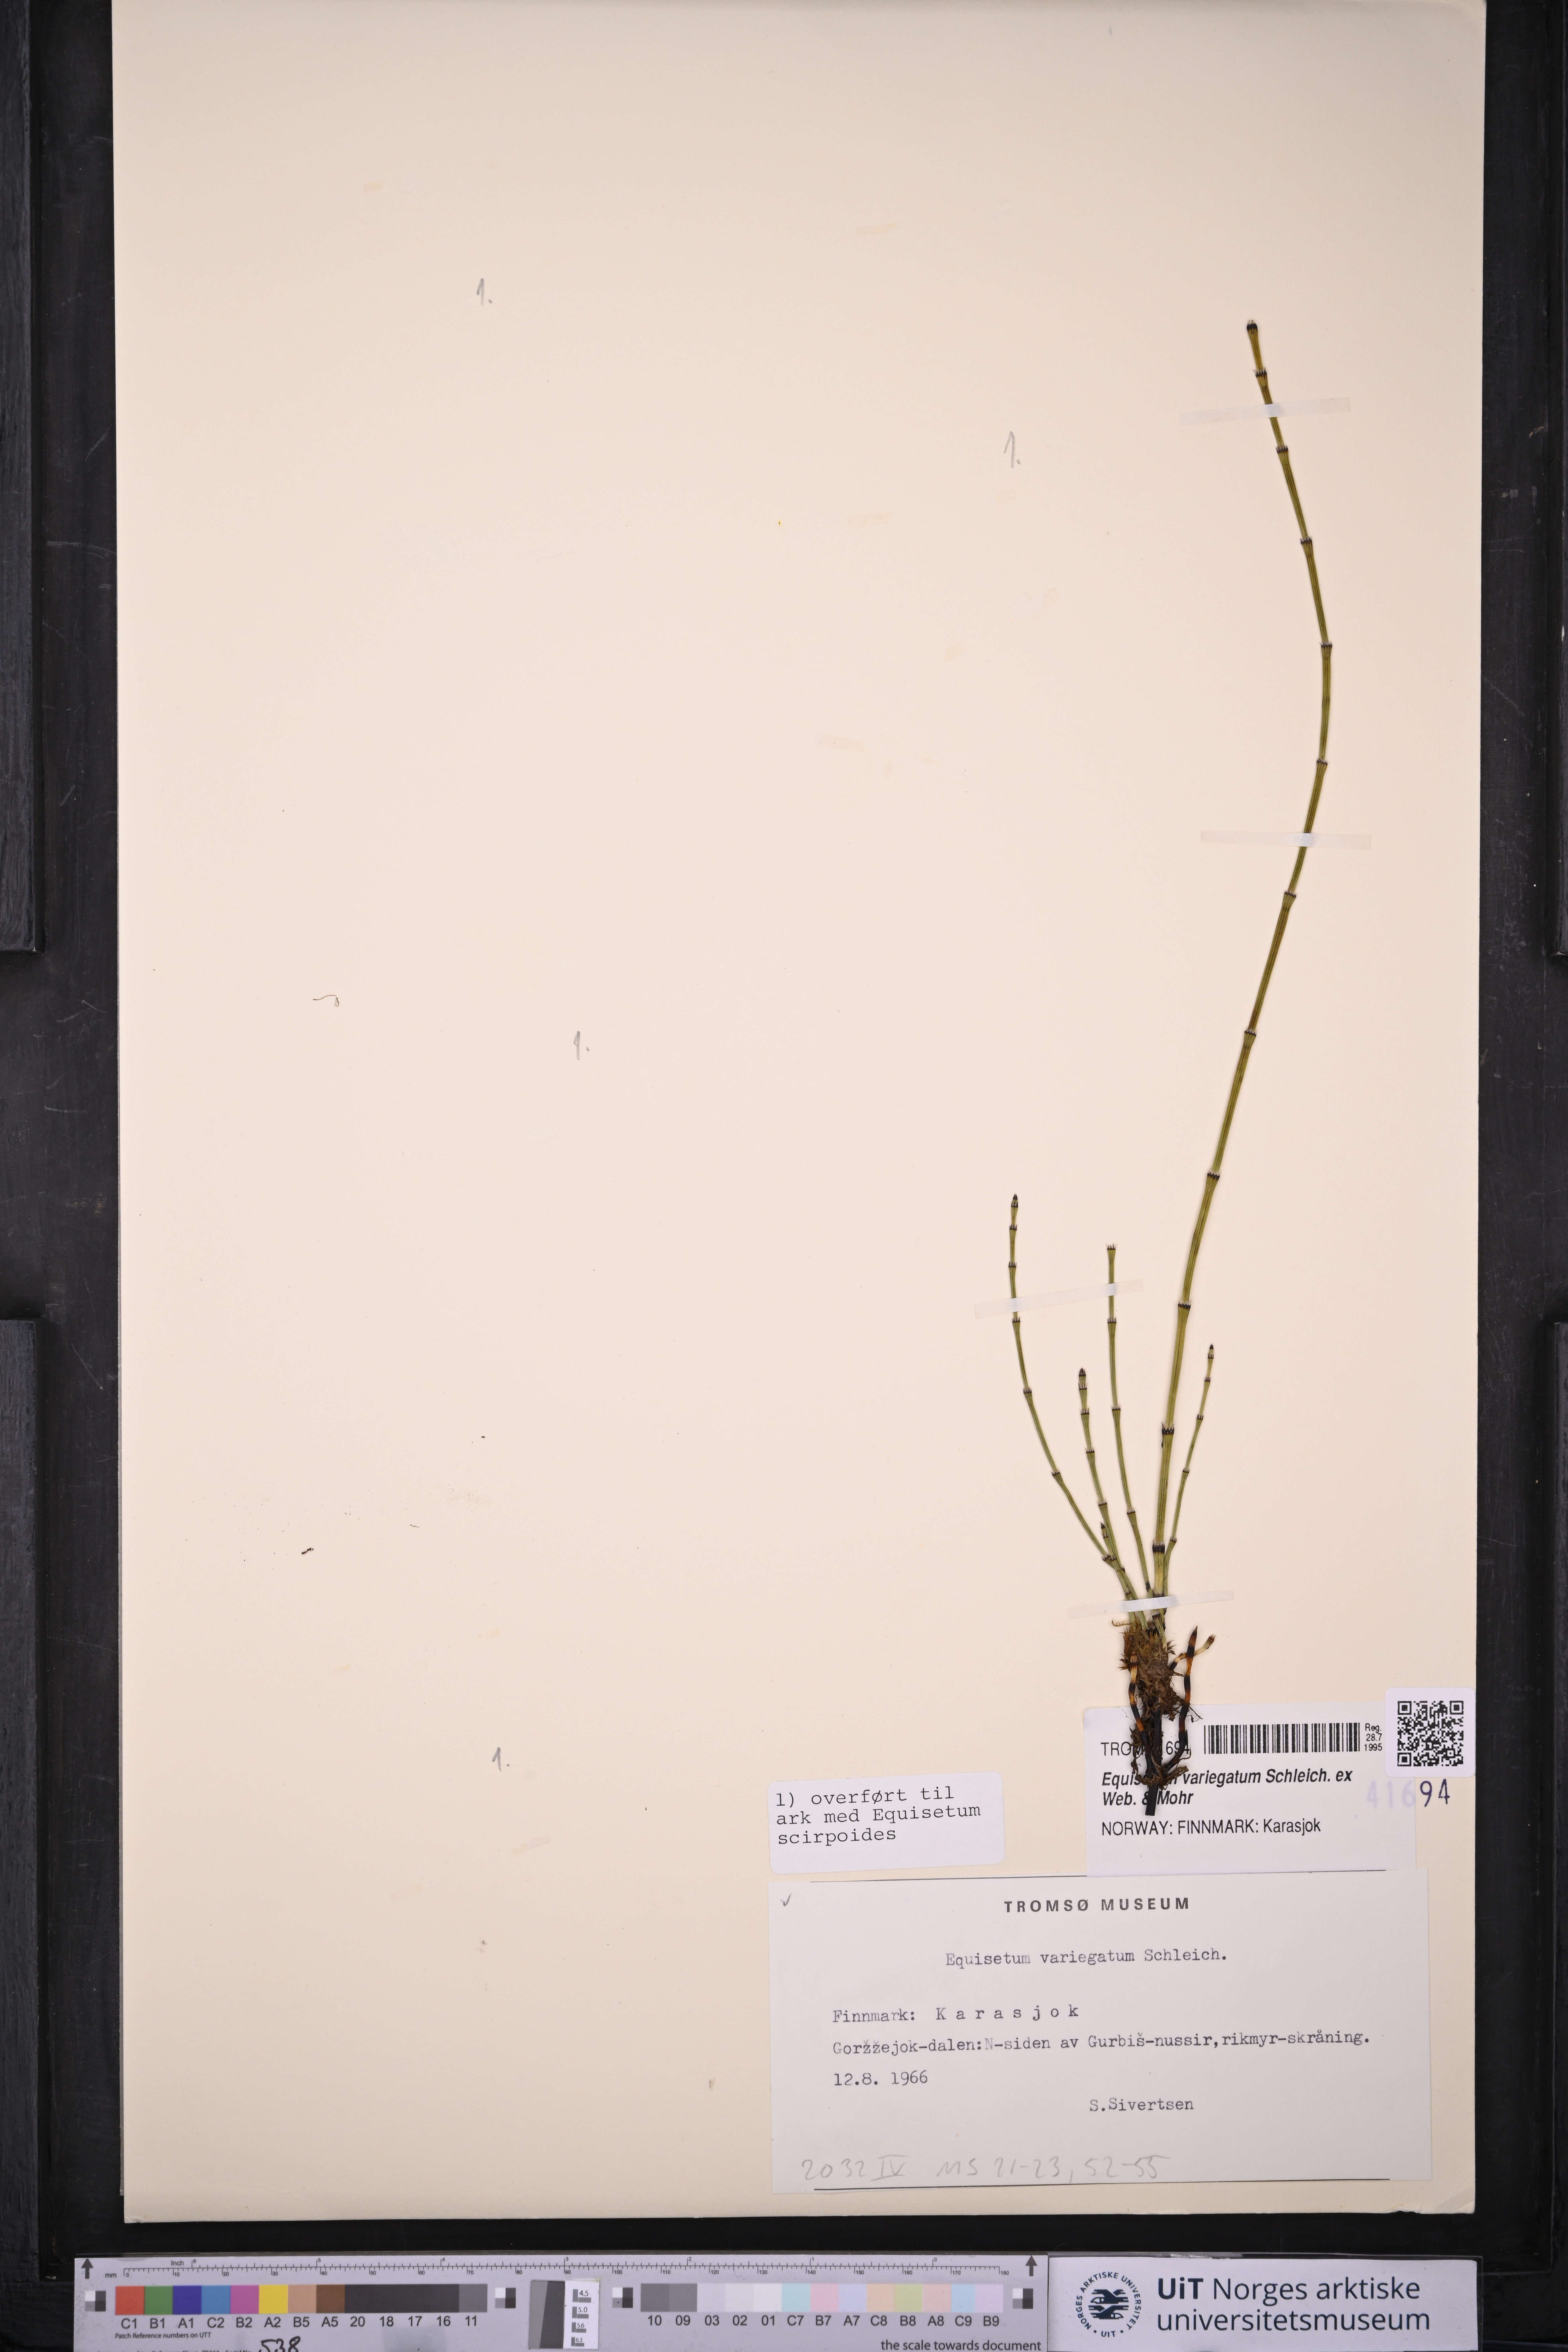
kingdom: Plantae
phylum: Tracheophyta
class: Polypodiopsida
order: Equisetales
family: Equisetaceae
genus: Equisetum
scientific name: Equisetum variegatum
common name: Variegated horsetail
